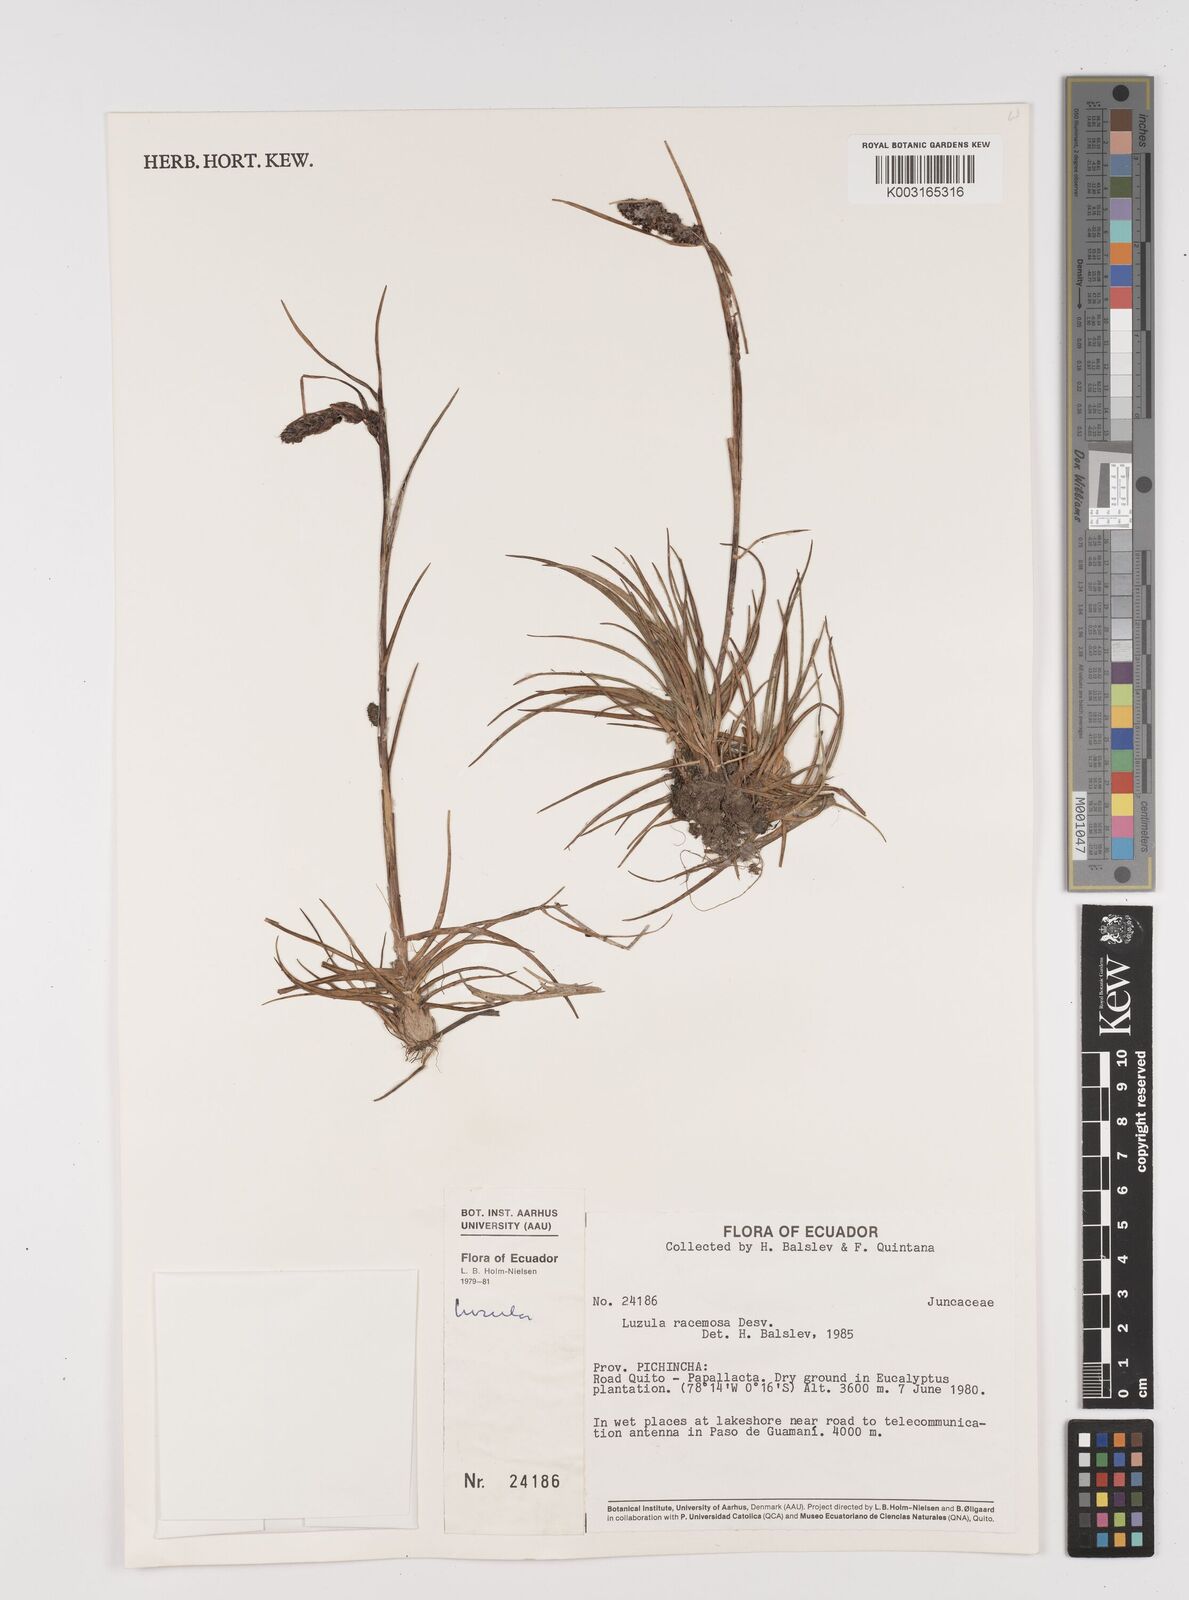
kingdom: Plantae
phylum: Tracheophyta
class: Liliopsida
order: Poales
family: Juncaceae
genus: Luzula
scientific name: Luzula racemosa
